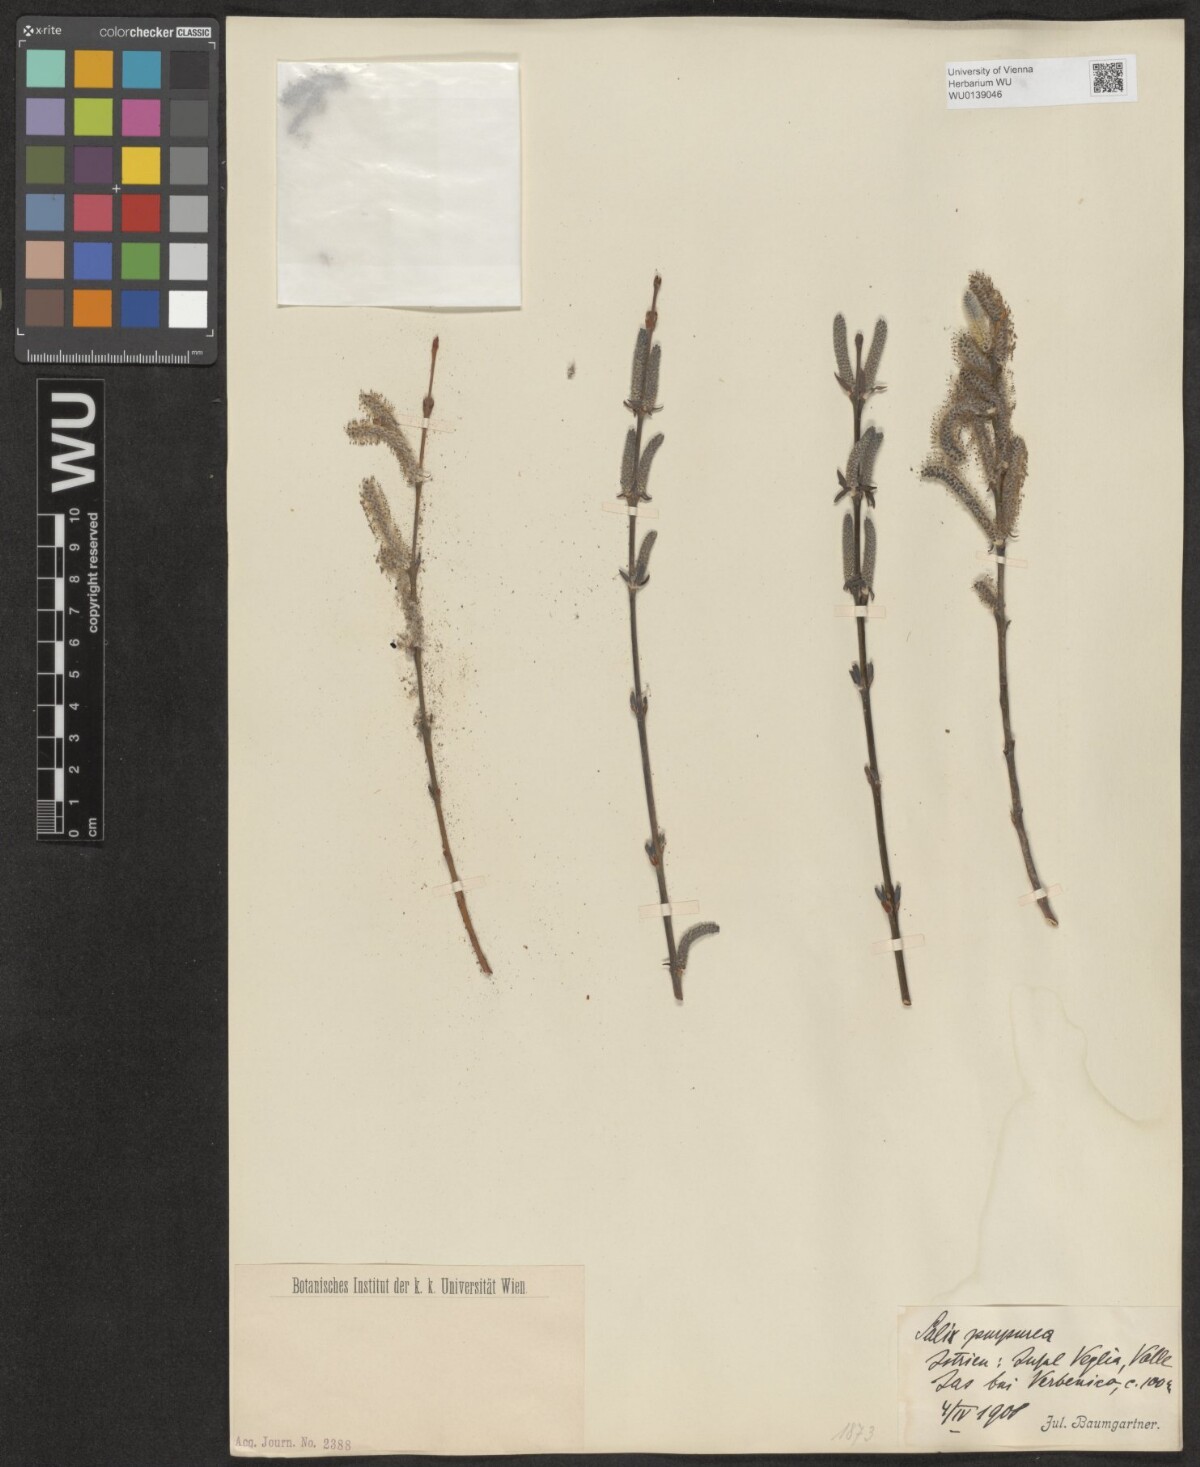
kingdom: Plantae
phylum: Tracheophyta
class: Magnoliopsida
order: Malpighiales
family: Salicaceae
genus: Salix
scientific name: Salix purpurea
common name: Purple willow
